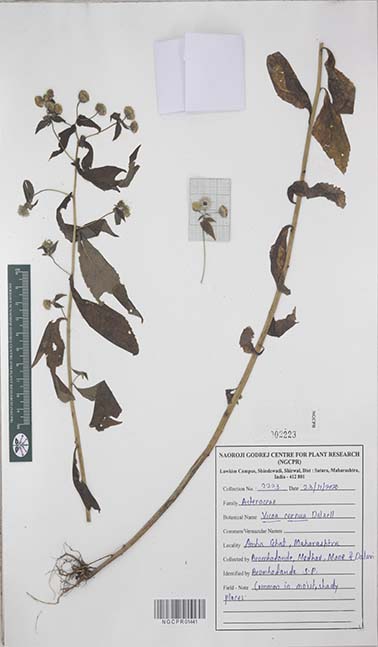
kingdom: Plantae
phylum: Tracheophyta
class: Magnoliopsida
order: Asterales
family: Asteraceae
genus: Vicoa
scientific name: Vicoa cernua
